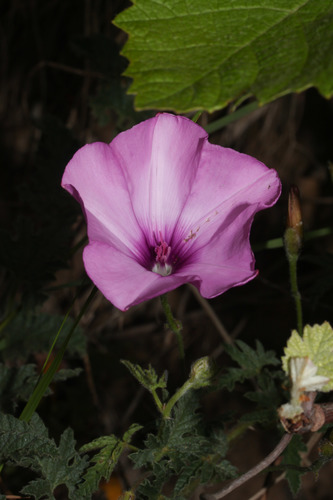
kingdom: Plantae
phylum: Tracheophyta
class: Magnoliopsida
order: Solanales
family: Convolvulaceae
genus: Convolvulus
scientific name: Convolvulus althaeoides
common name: Mallow bindweed
